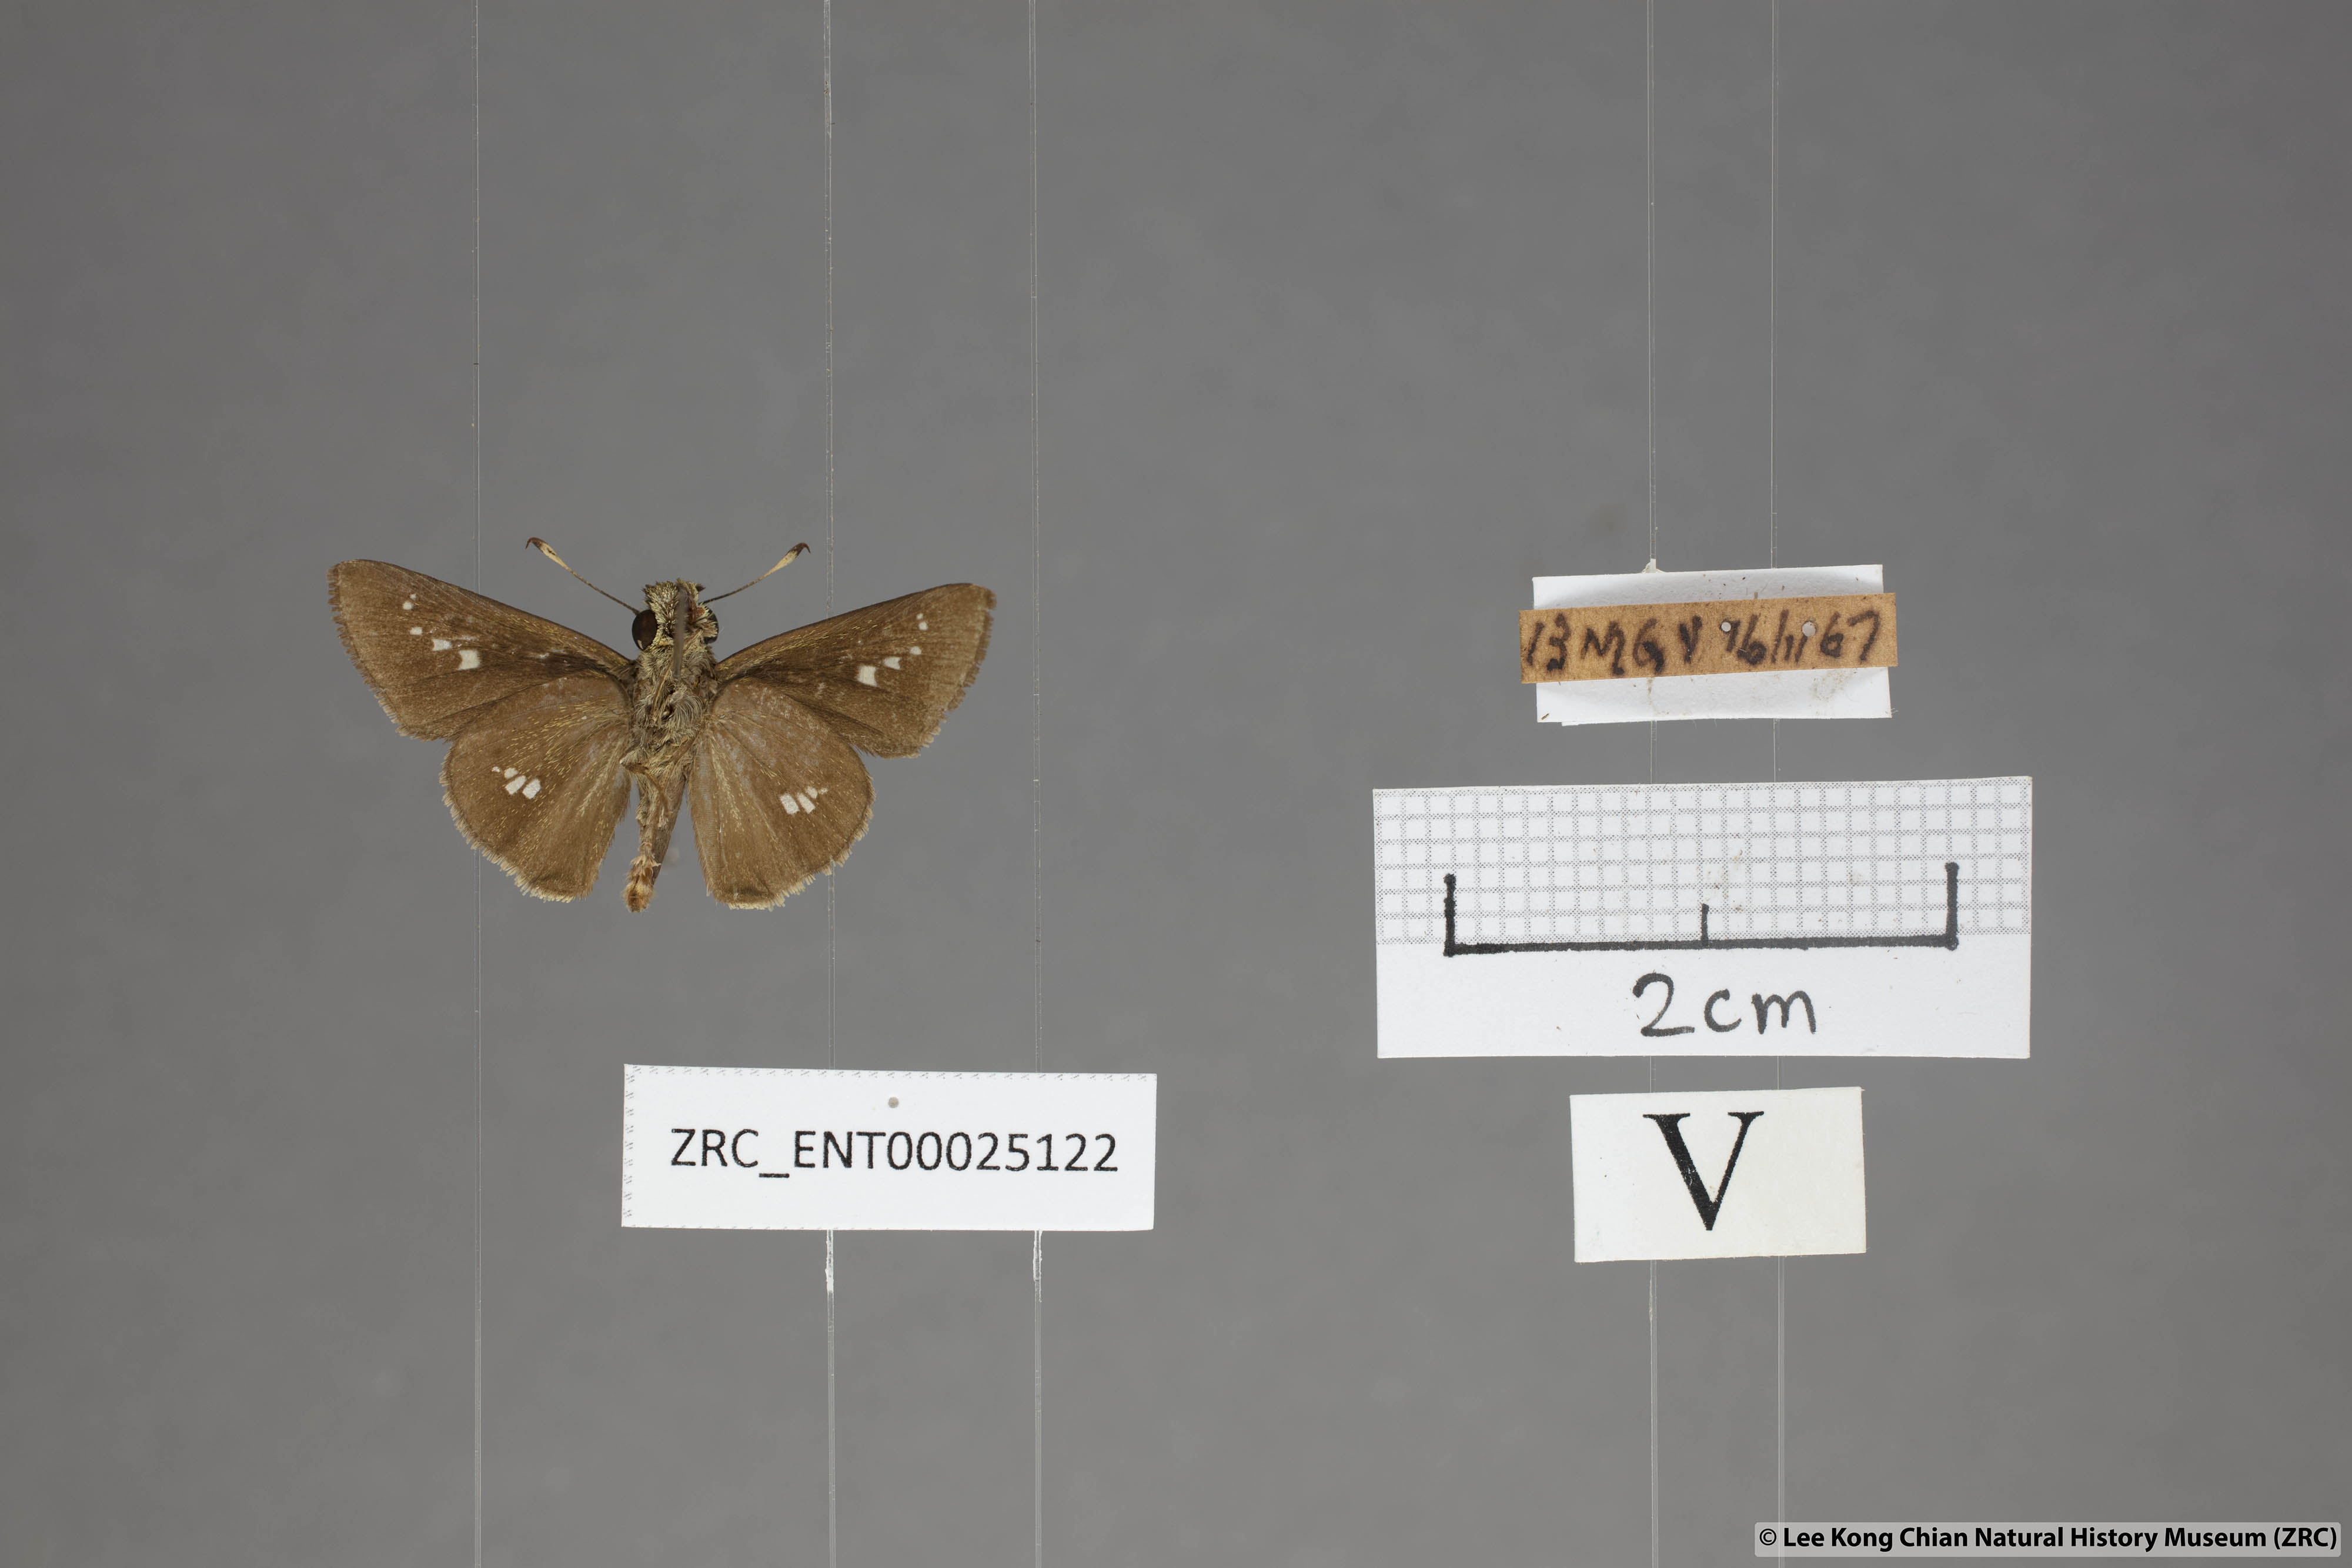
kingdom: Animalia
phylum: Arthropoda
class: Insecta
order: Lepidoptera
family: Hesperiidae
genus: Parnara
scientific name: Parnara apostata
